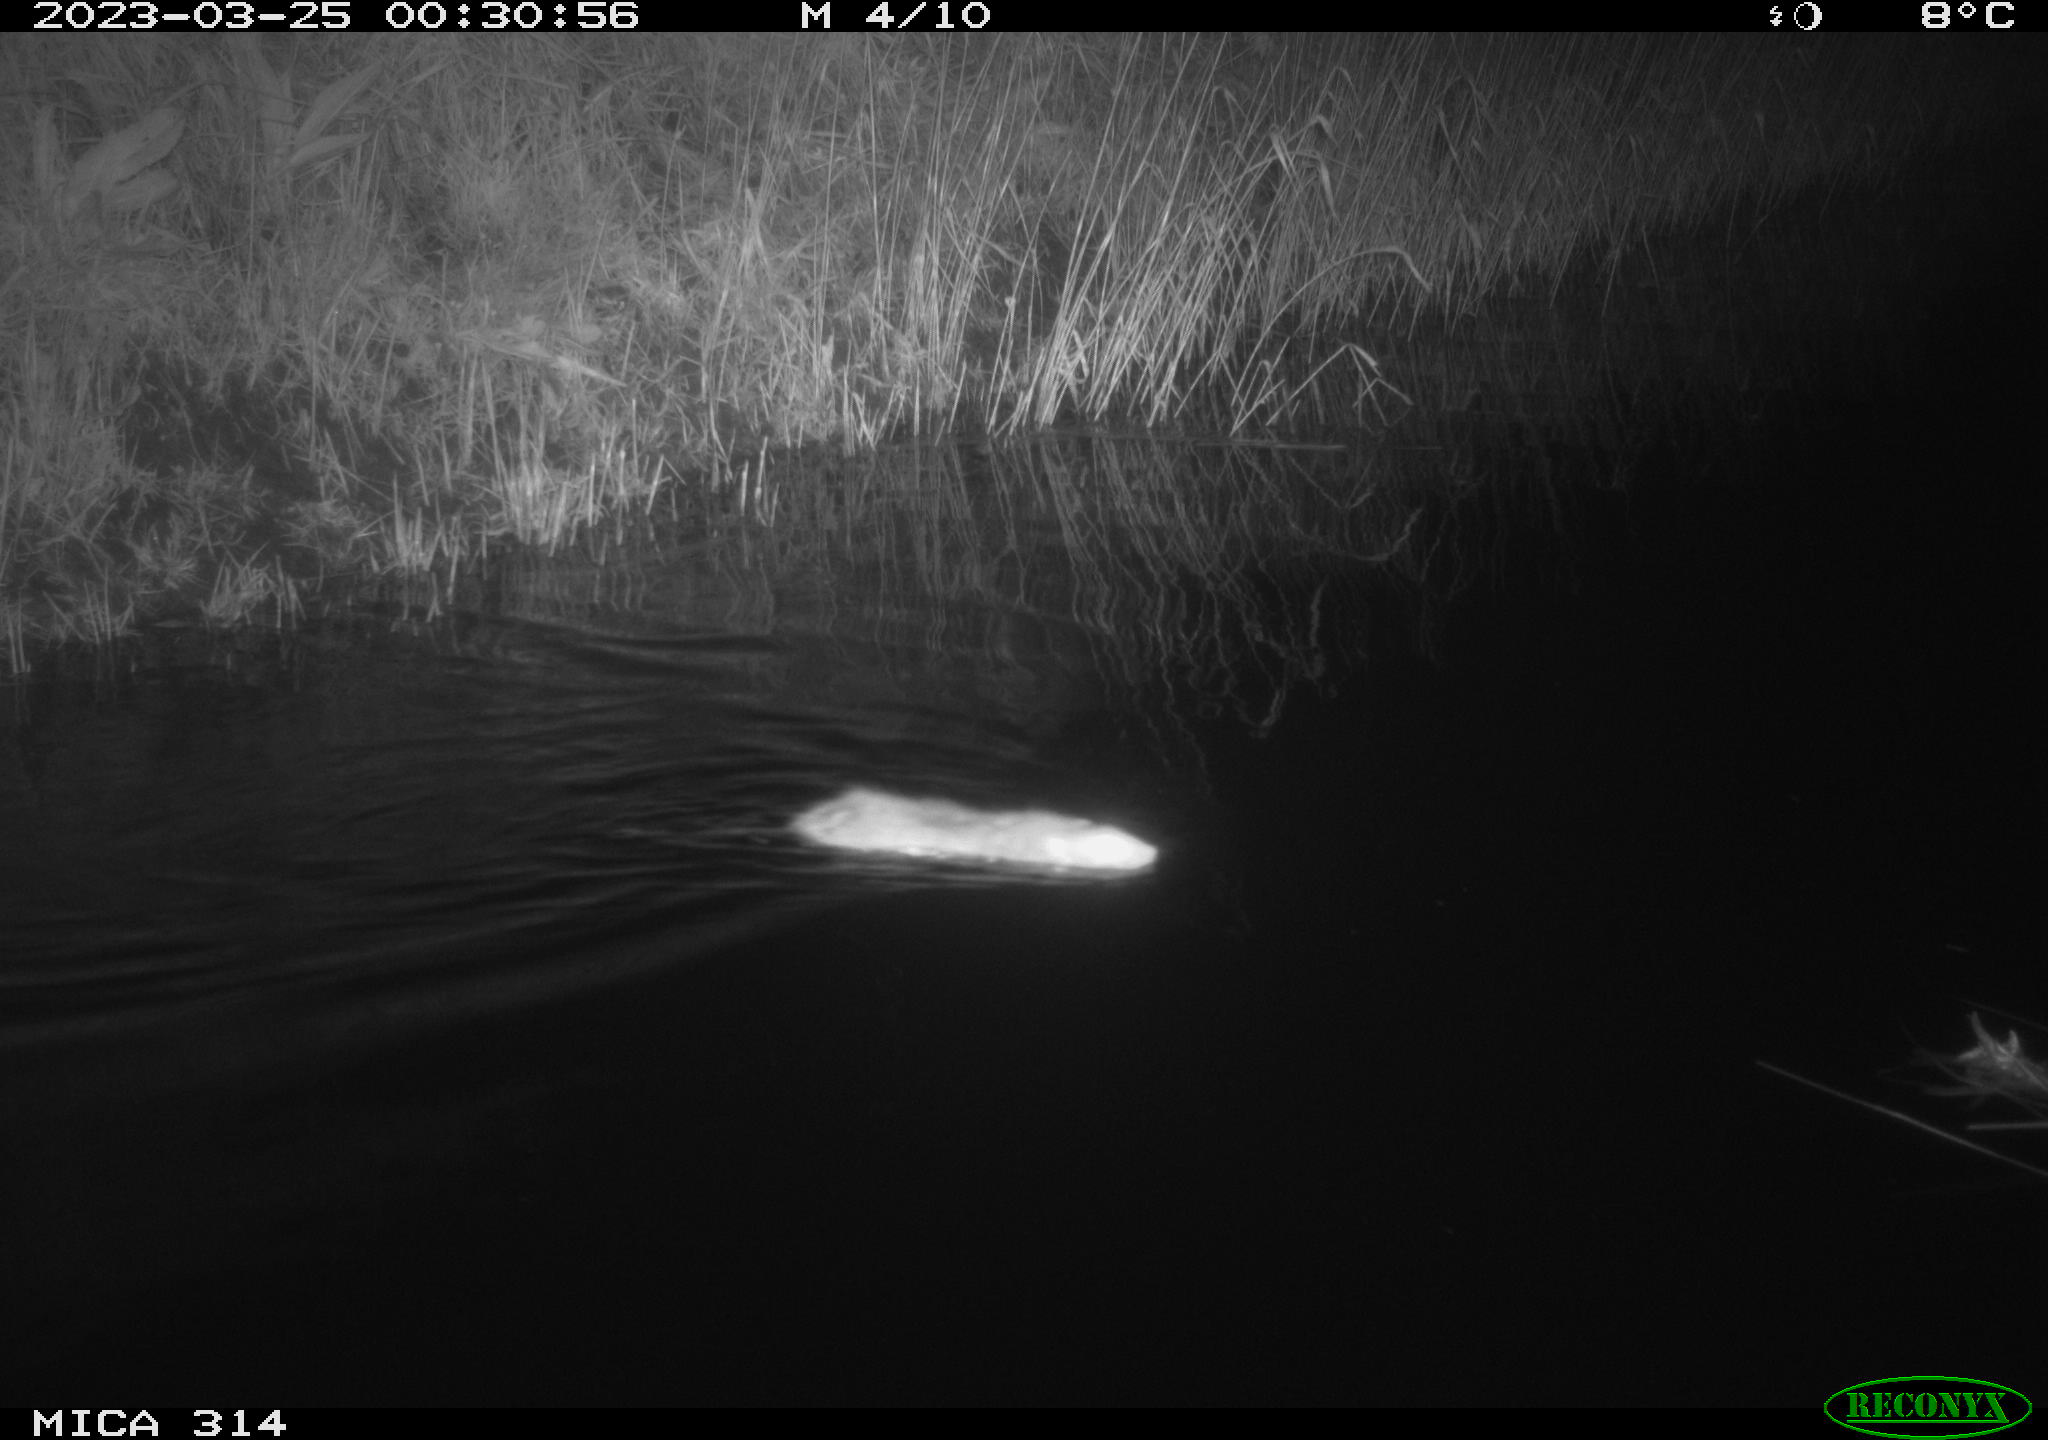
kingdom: Animalia
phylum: Chordata
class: Mammalia
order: Rodentia
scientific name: Rodentia
